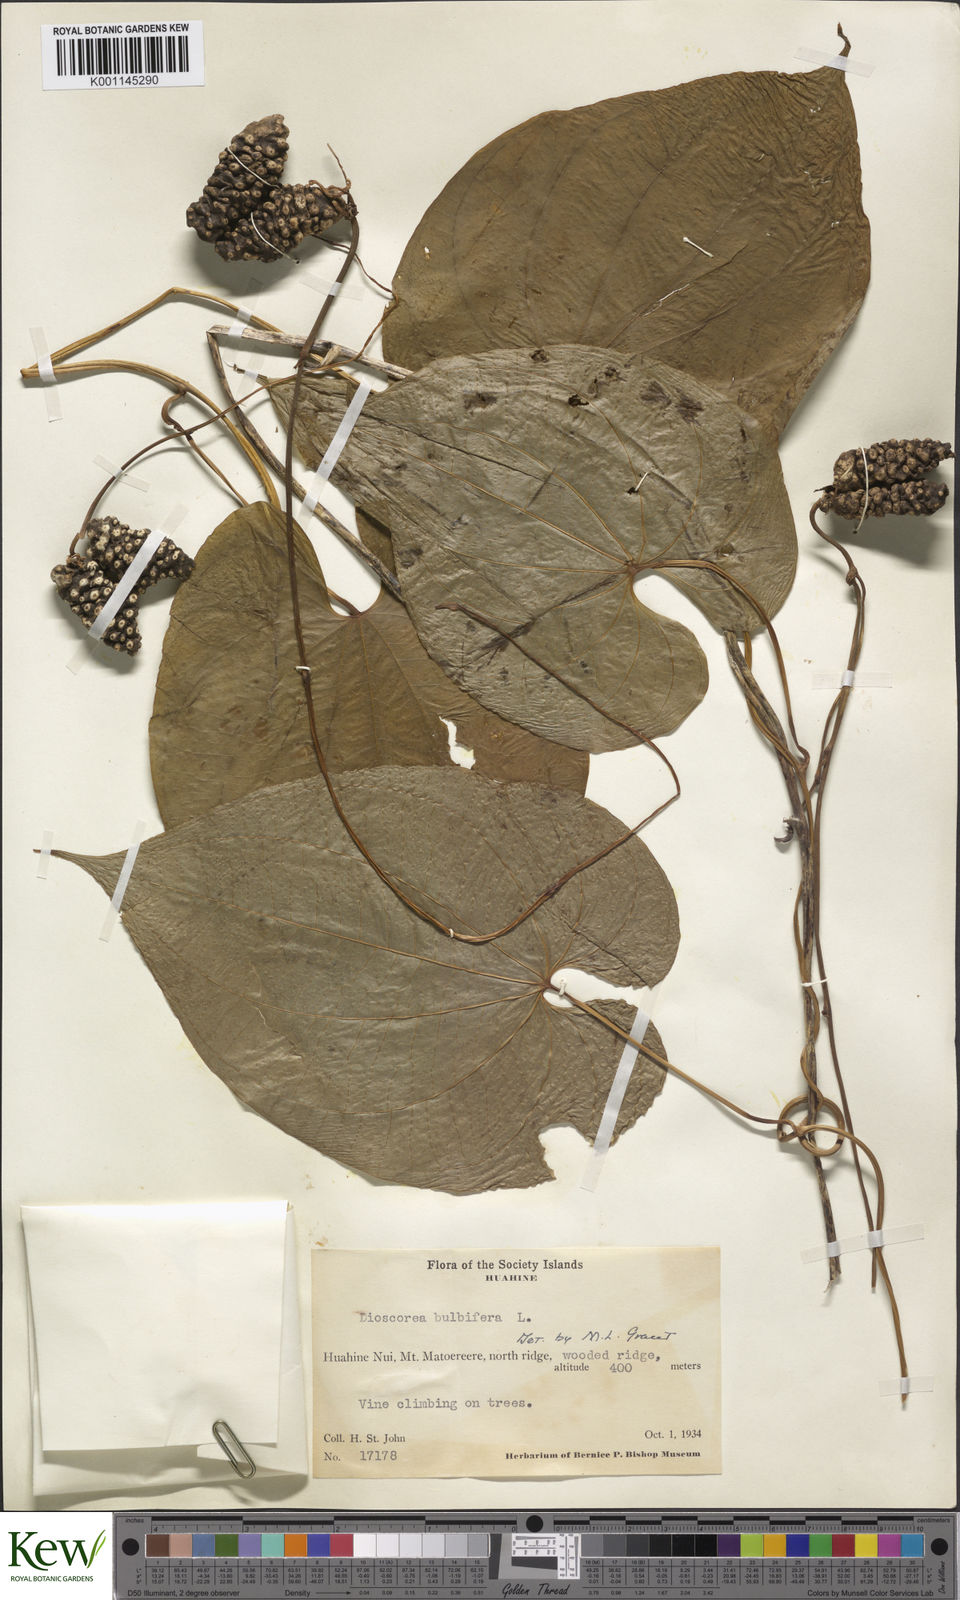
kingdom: Plantae
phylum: Tracheophyta
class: Liliopsida
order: Dioscoreales
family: Dioscoreaceae
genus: Dioscorea
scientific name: Dioscorea bulbifera
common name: Air yam
